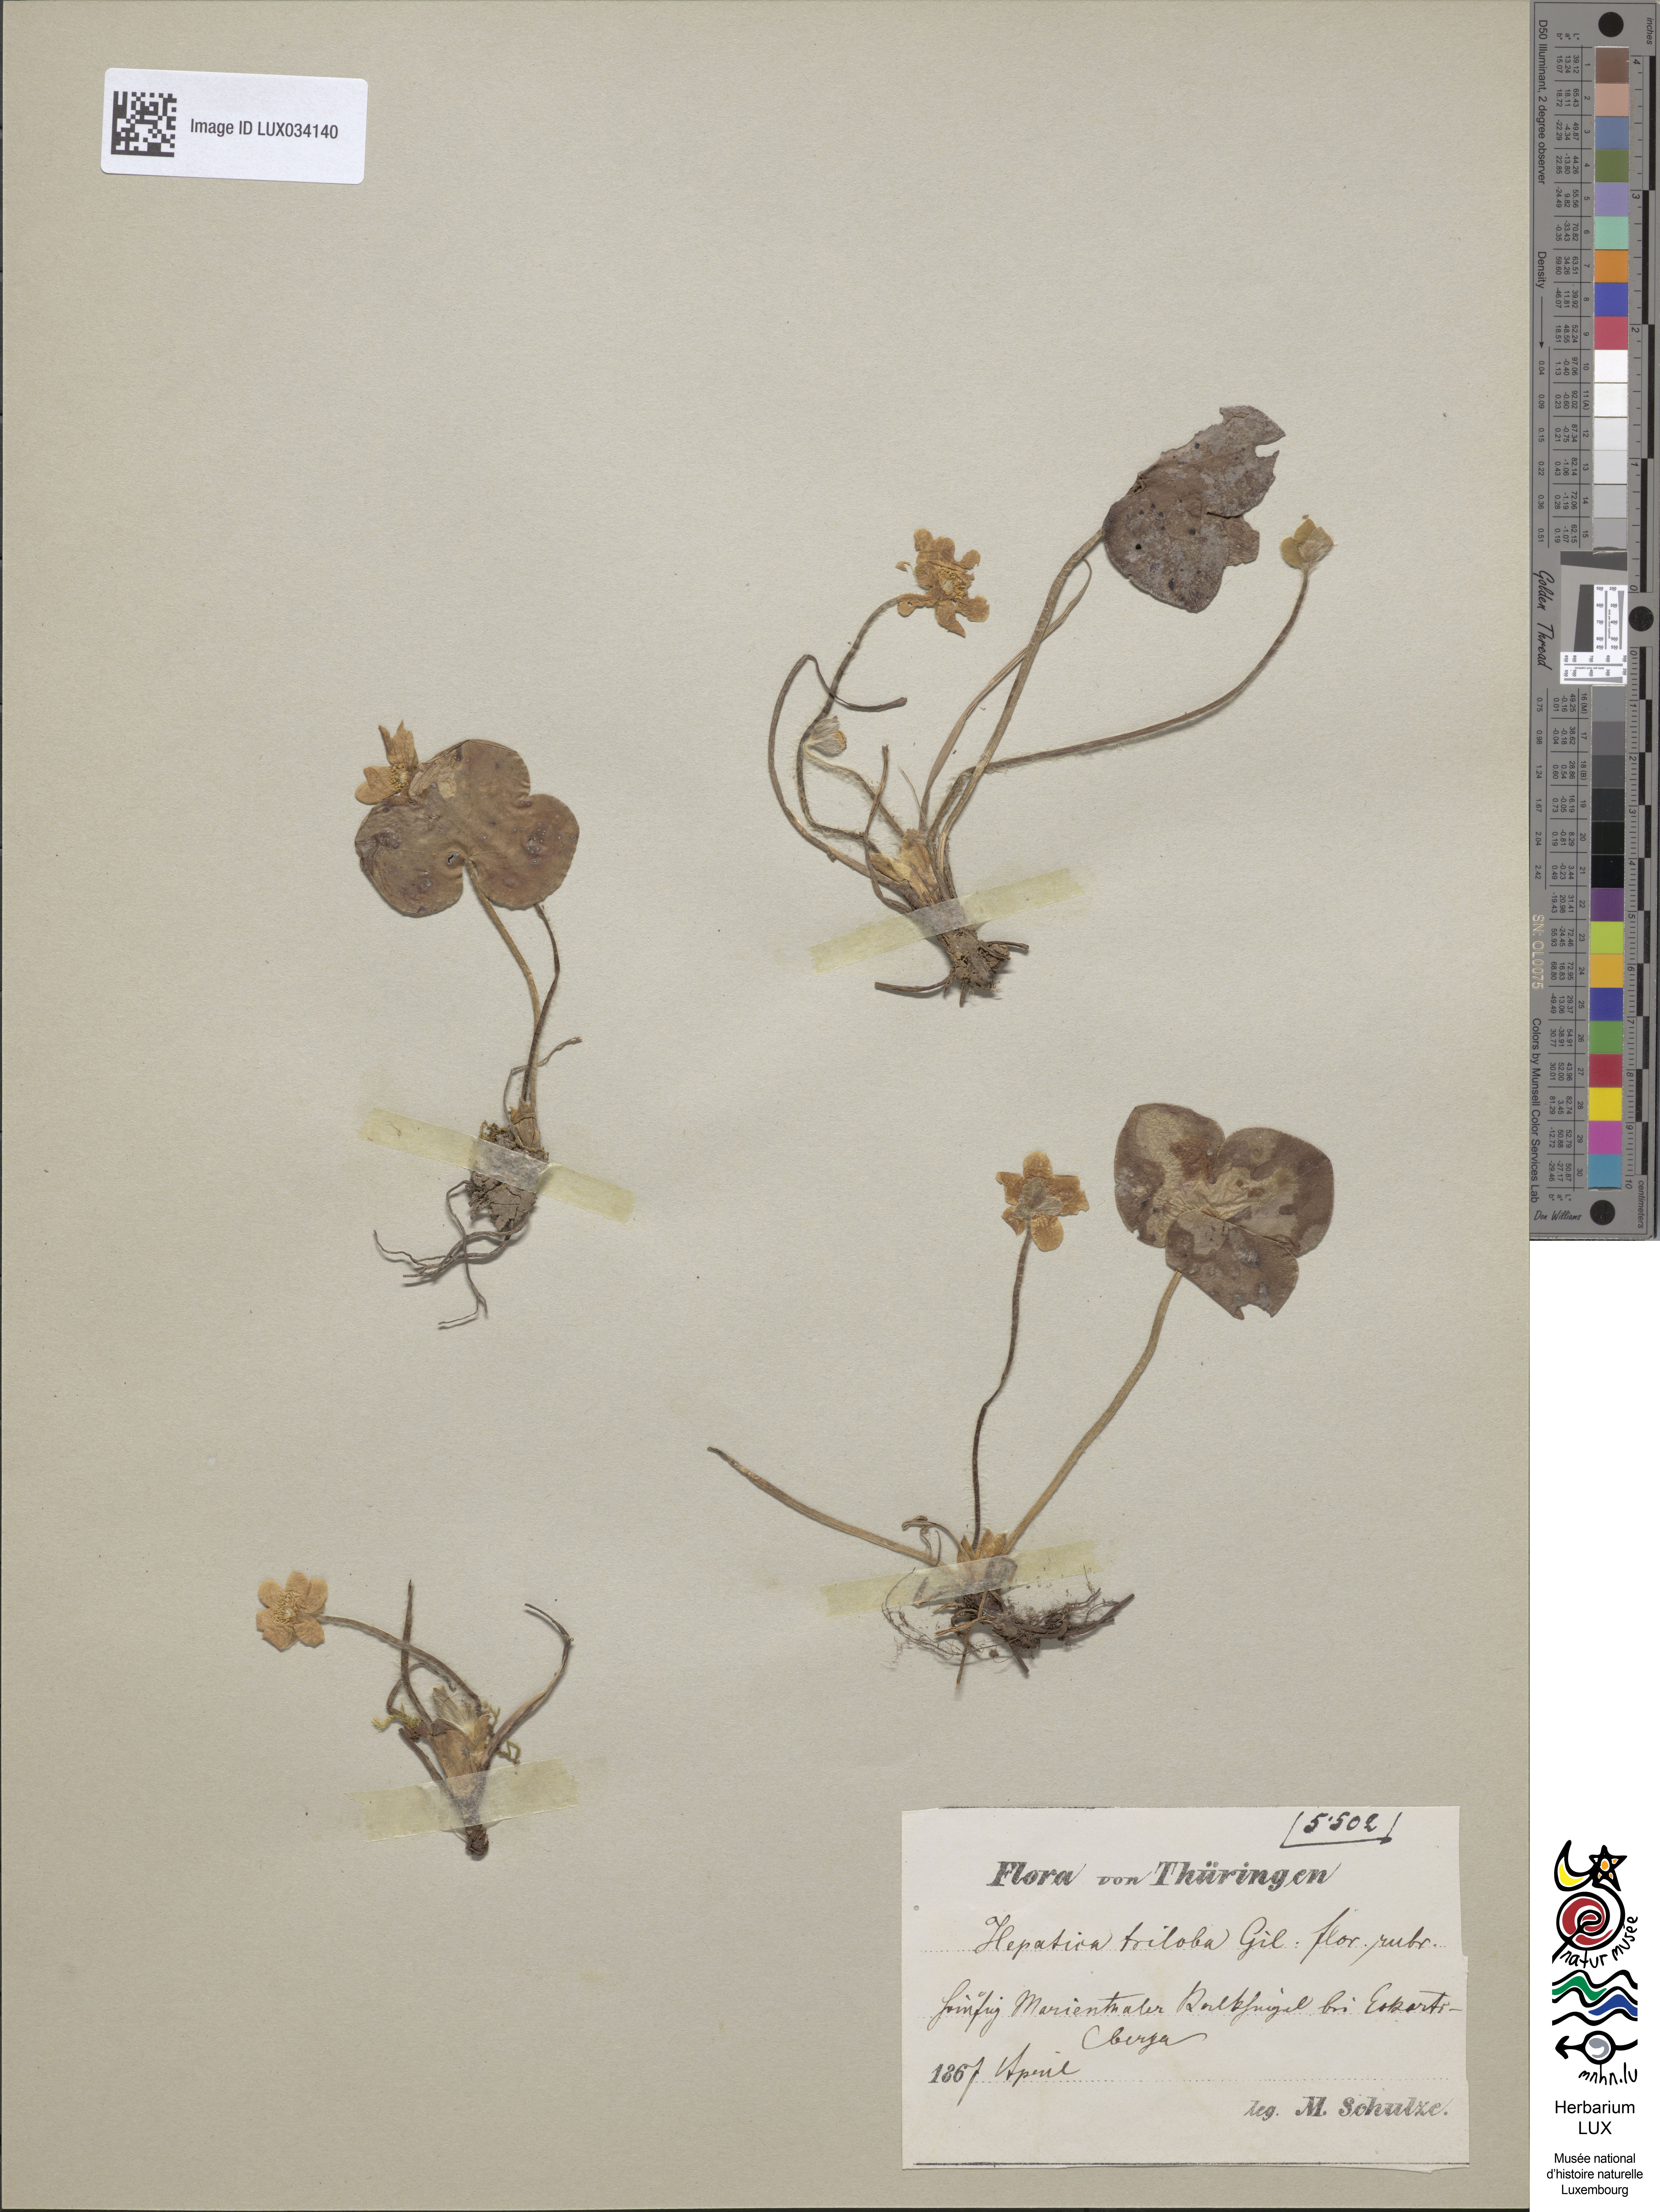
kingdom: Plantae
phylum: Tracheophyta
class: Magnoliopsida
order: Ranunculales
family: Ranunculaceae
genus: Hepatica
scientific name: Hepatica nobilis
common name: Liverleaf
